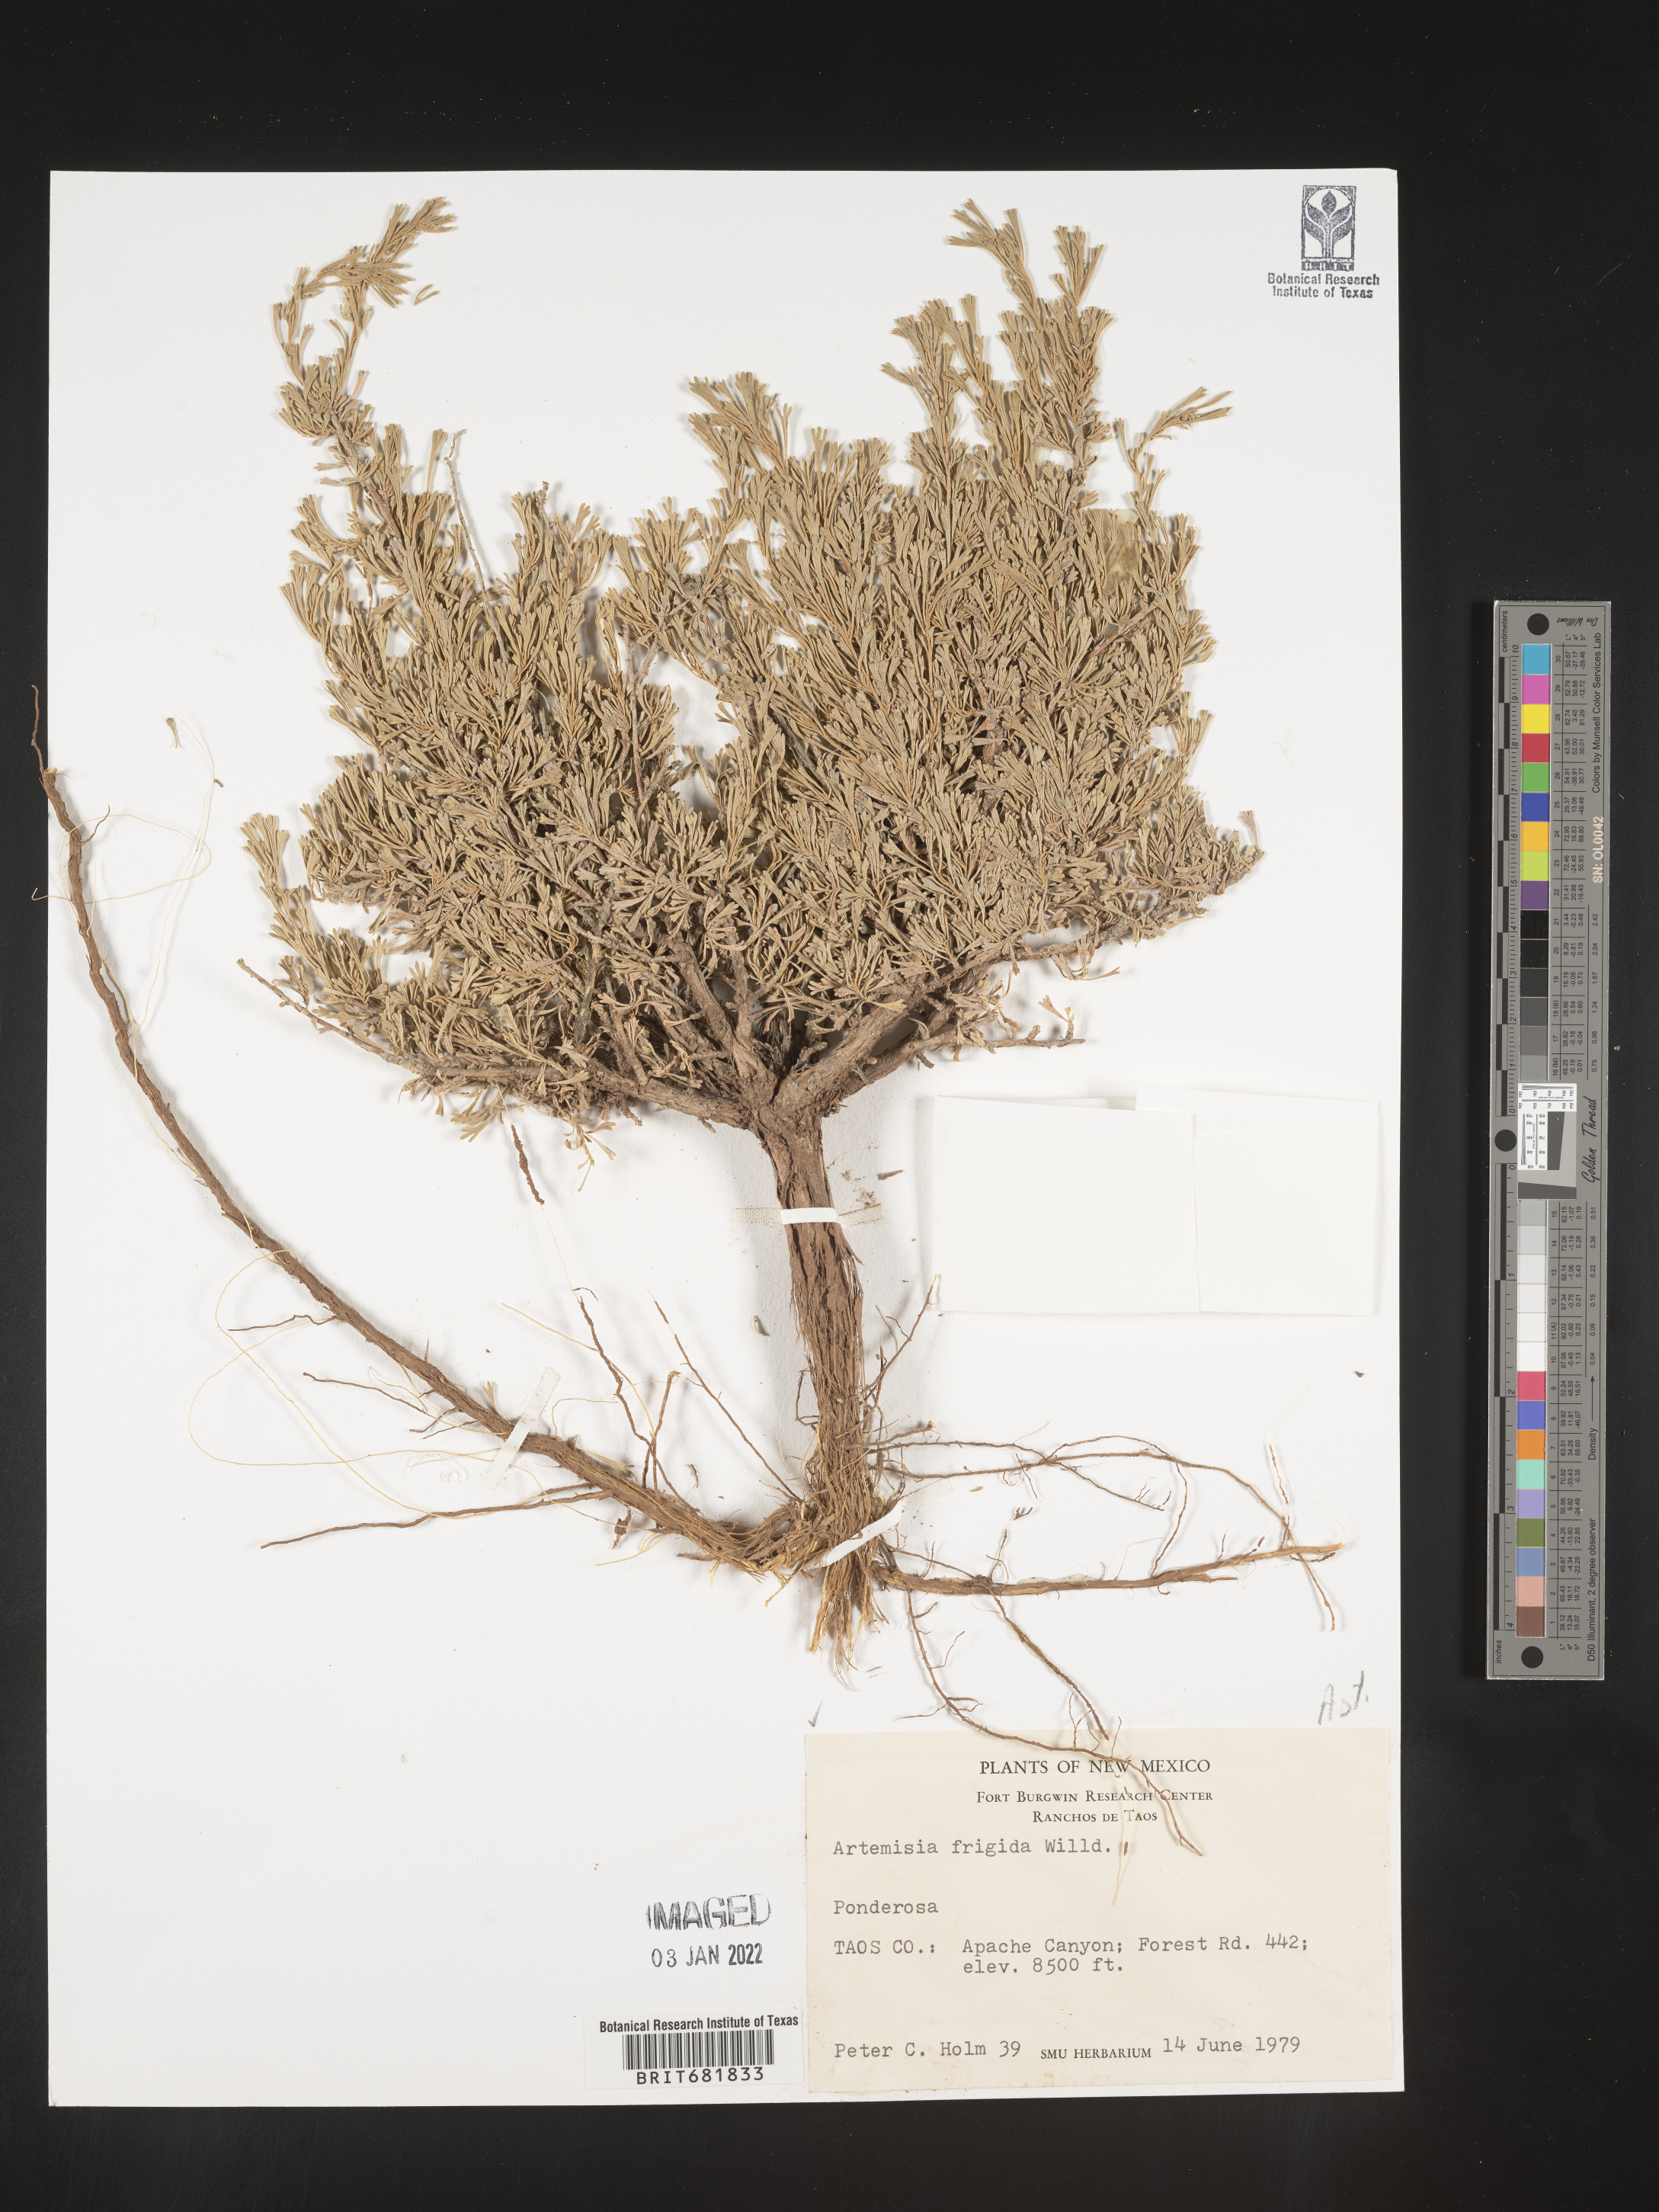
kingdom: Plantae
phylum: Tracheophyta
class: Magnoliopsida
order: Asterales
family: Asteraceae
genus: Artemisia
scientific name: Artemisia frigida
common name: Prairie sagewort
